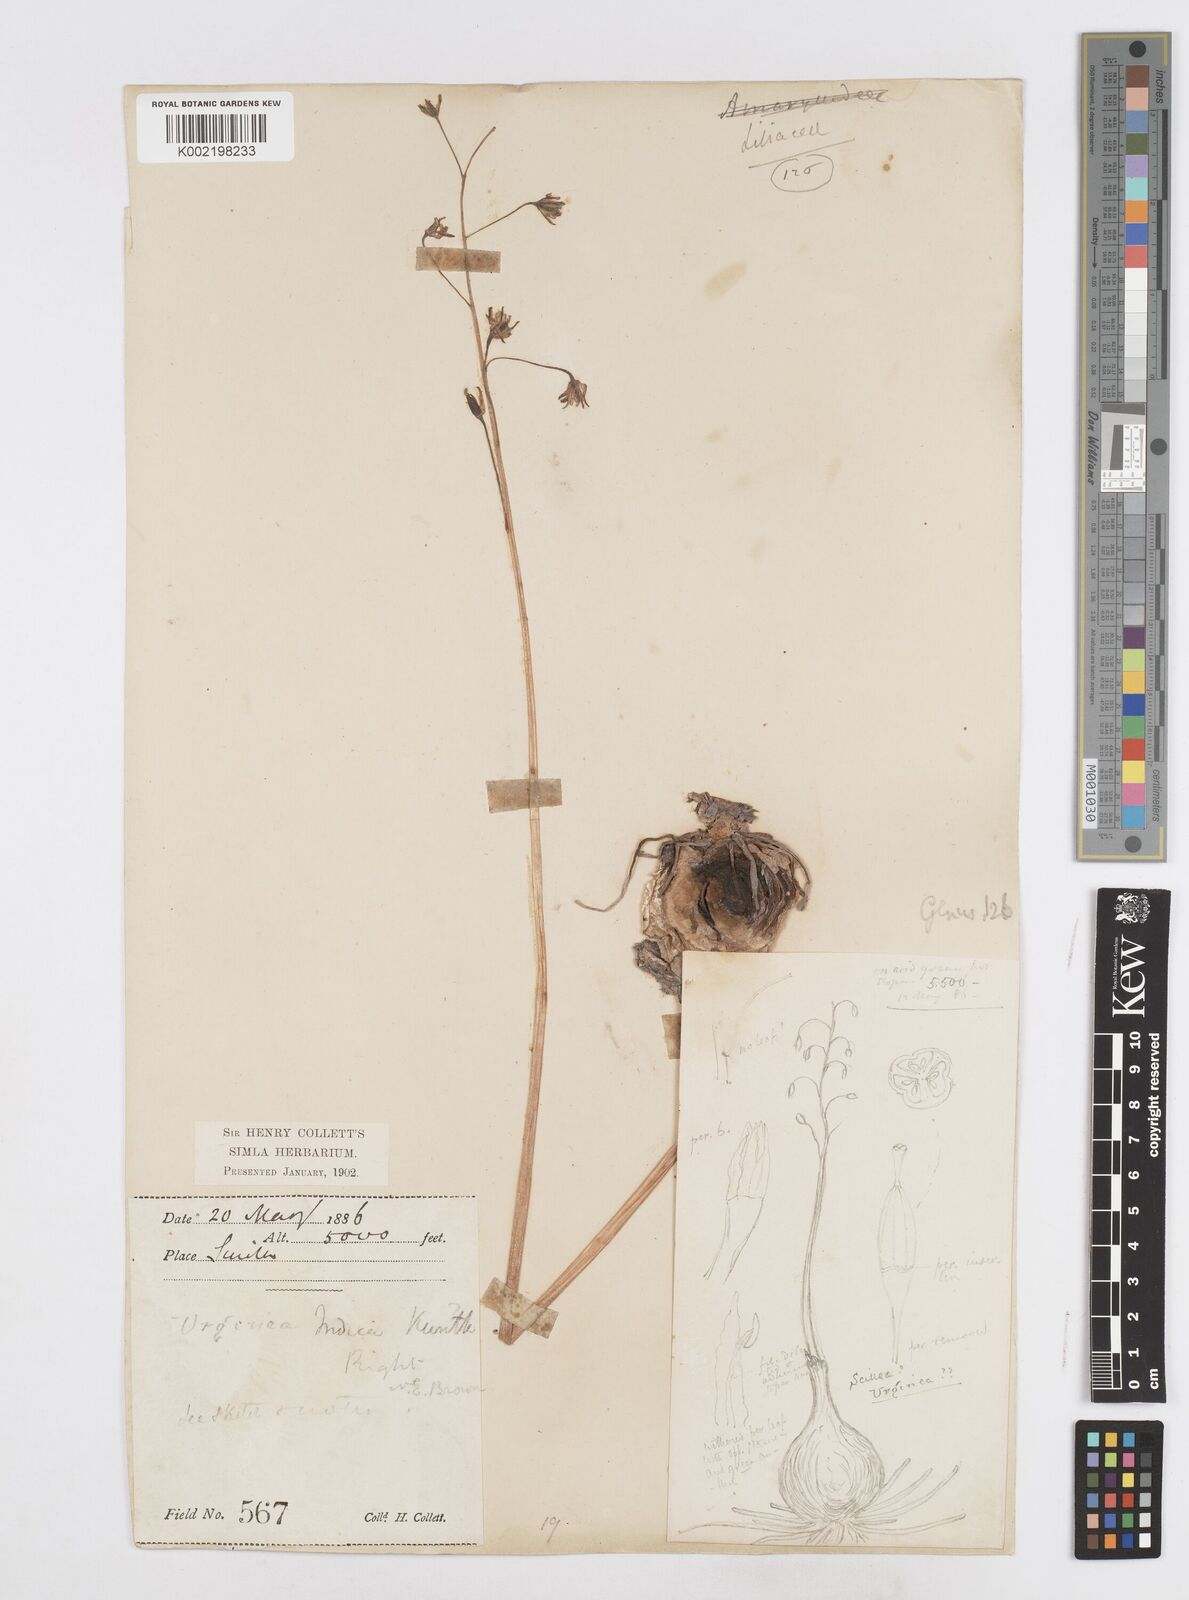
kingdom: Plantae
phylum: Tracheophyta
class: Liliopsida
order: Asparagales
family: Asparagaceae
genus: Drimia
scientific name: Drimia indica
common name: Indian-squill
